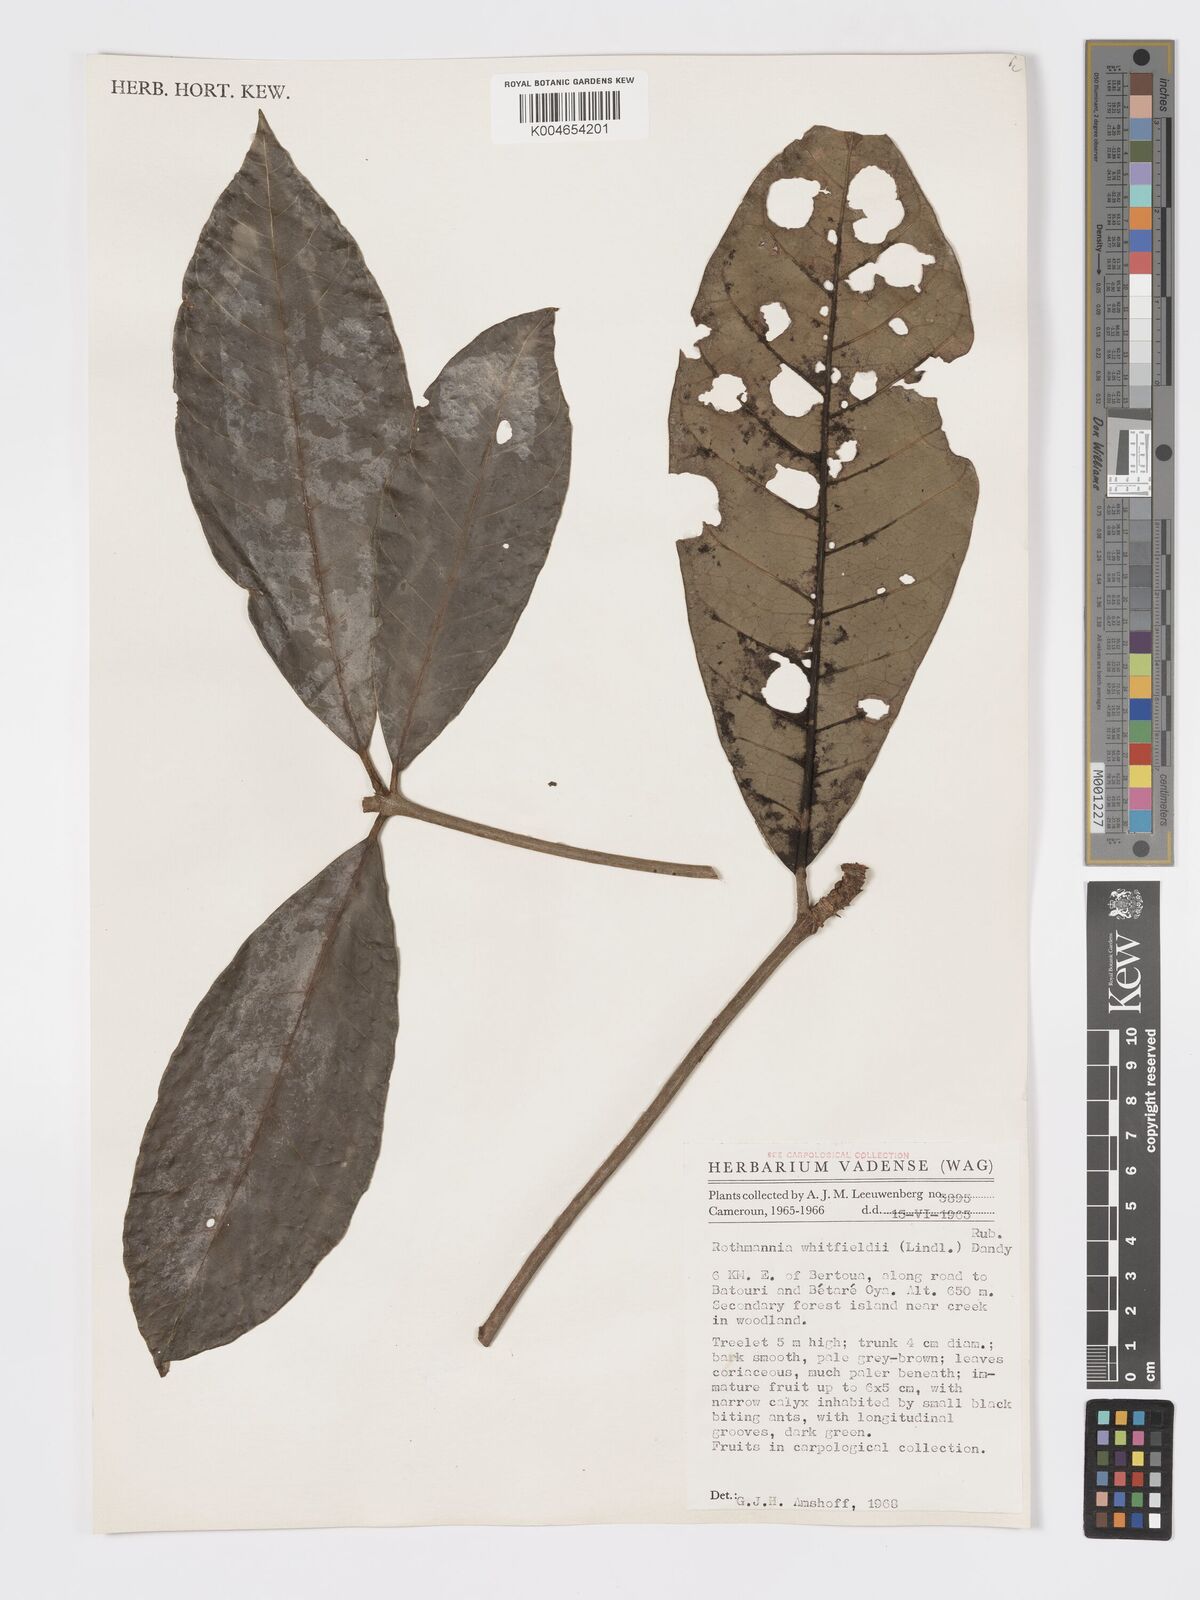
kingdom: Plantae
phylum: Tracheophyta
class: Magnoliopsida
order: Gentianales
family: Rubiaceae
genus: Rothmannia
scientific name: Rothmannia whitfieldii
